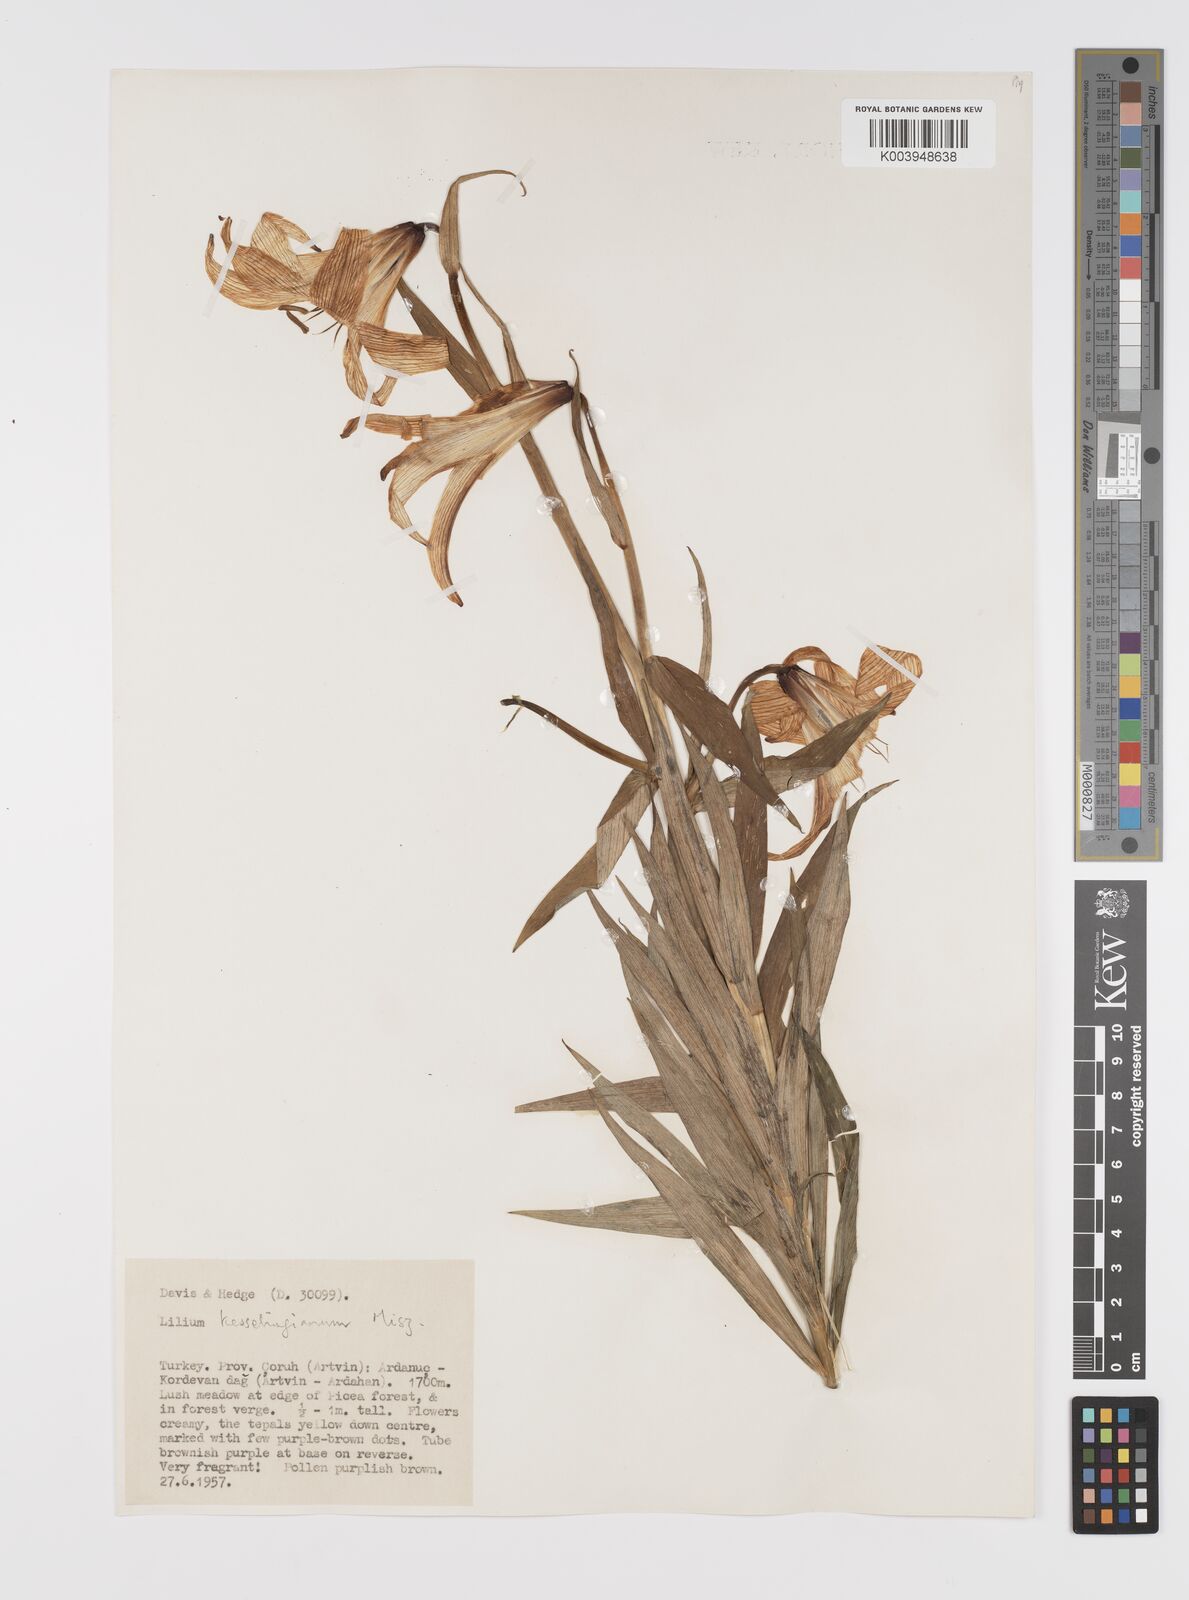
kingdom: Plantae
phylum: Tracheophyta
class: Liliopsida
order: Liliales
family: Liliaceae
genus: Lilium
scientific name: Lilium kesselringianum
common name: Kesselring lily
